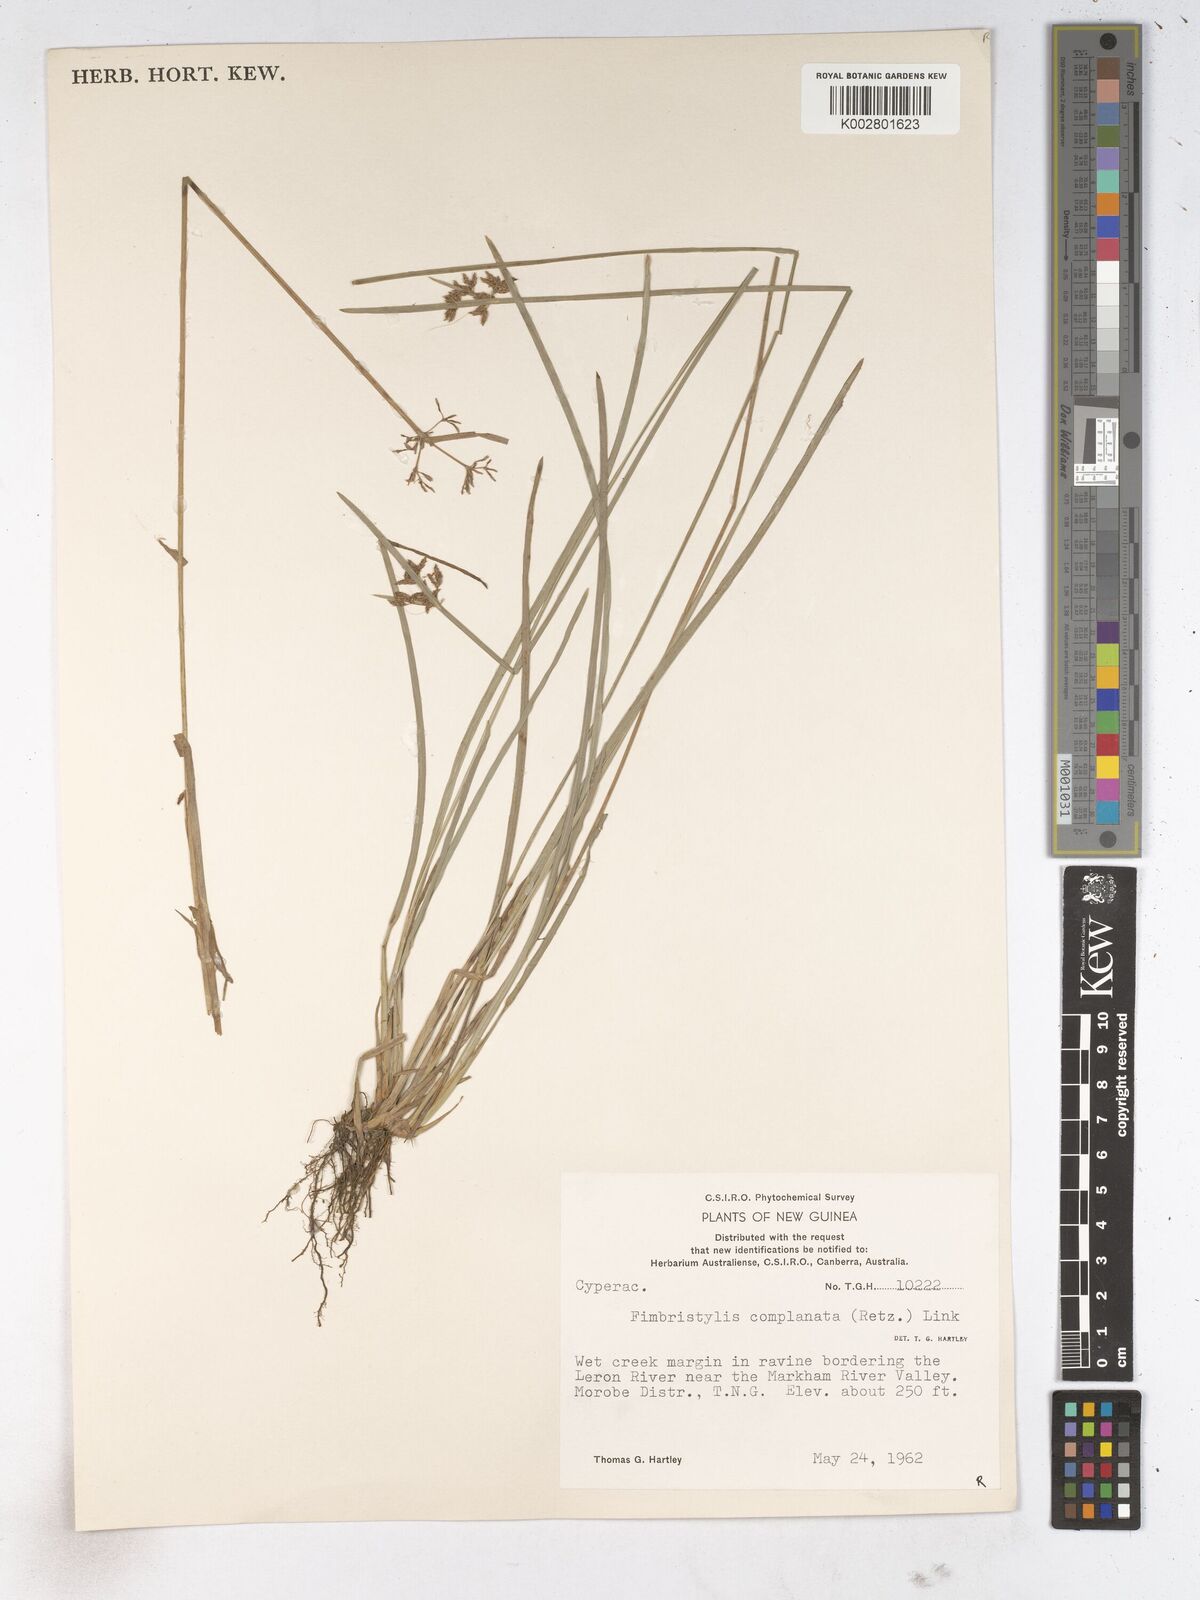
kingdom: Plantae
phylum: Tracheophyta
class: Liliopsida
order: Poales
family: Cyperaceae
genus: Fimbristylis
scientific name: Fimbristylis complanata
